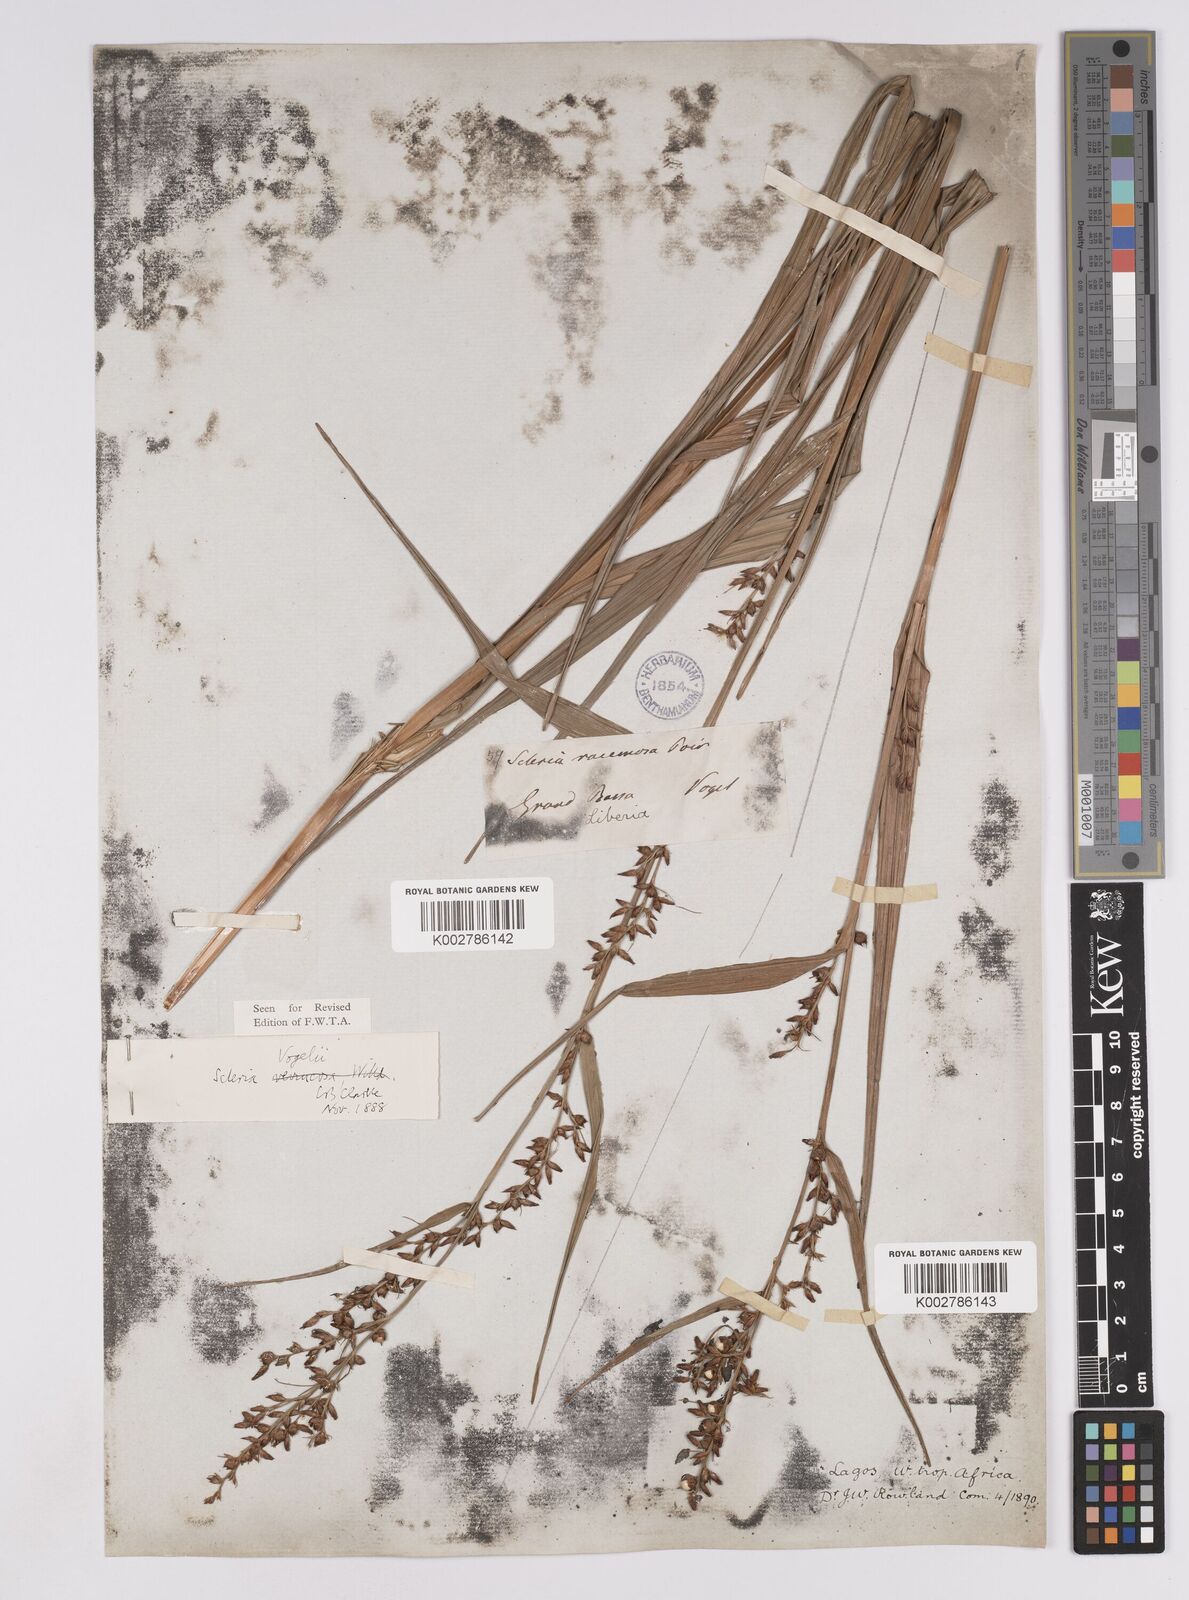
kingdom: Plantae
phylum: Tracheophyta
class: Liliopsida
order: Poales
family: Cyperaceae
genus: Scleria
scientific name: Scleria vogelii
